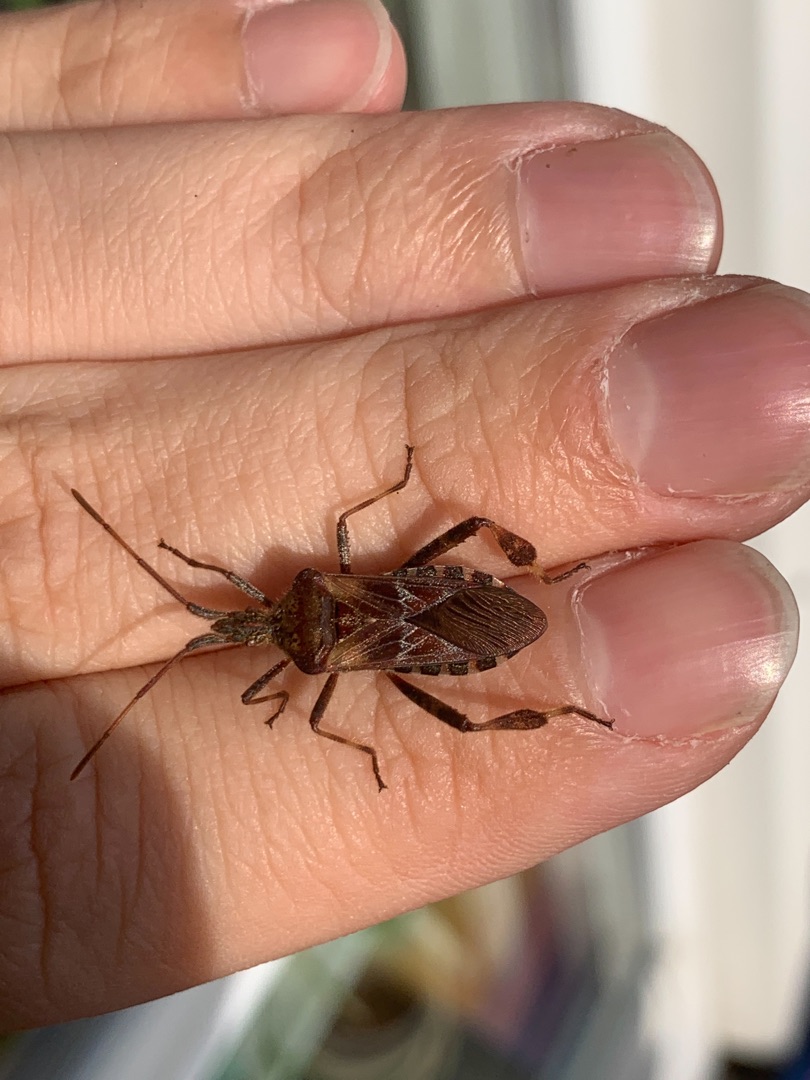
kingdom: Animalia
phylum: Arthropoda
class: Insecta
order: Hemiptera
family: Coreidae
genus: Leptoglossus
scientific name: Leptoglossus occidentalis
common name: Amerikansk fyrretæge
